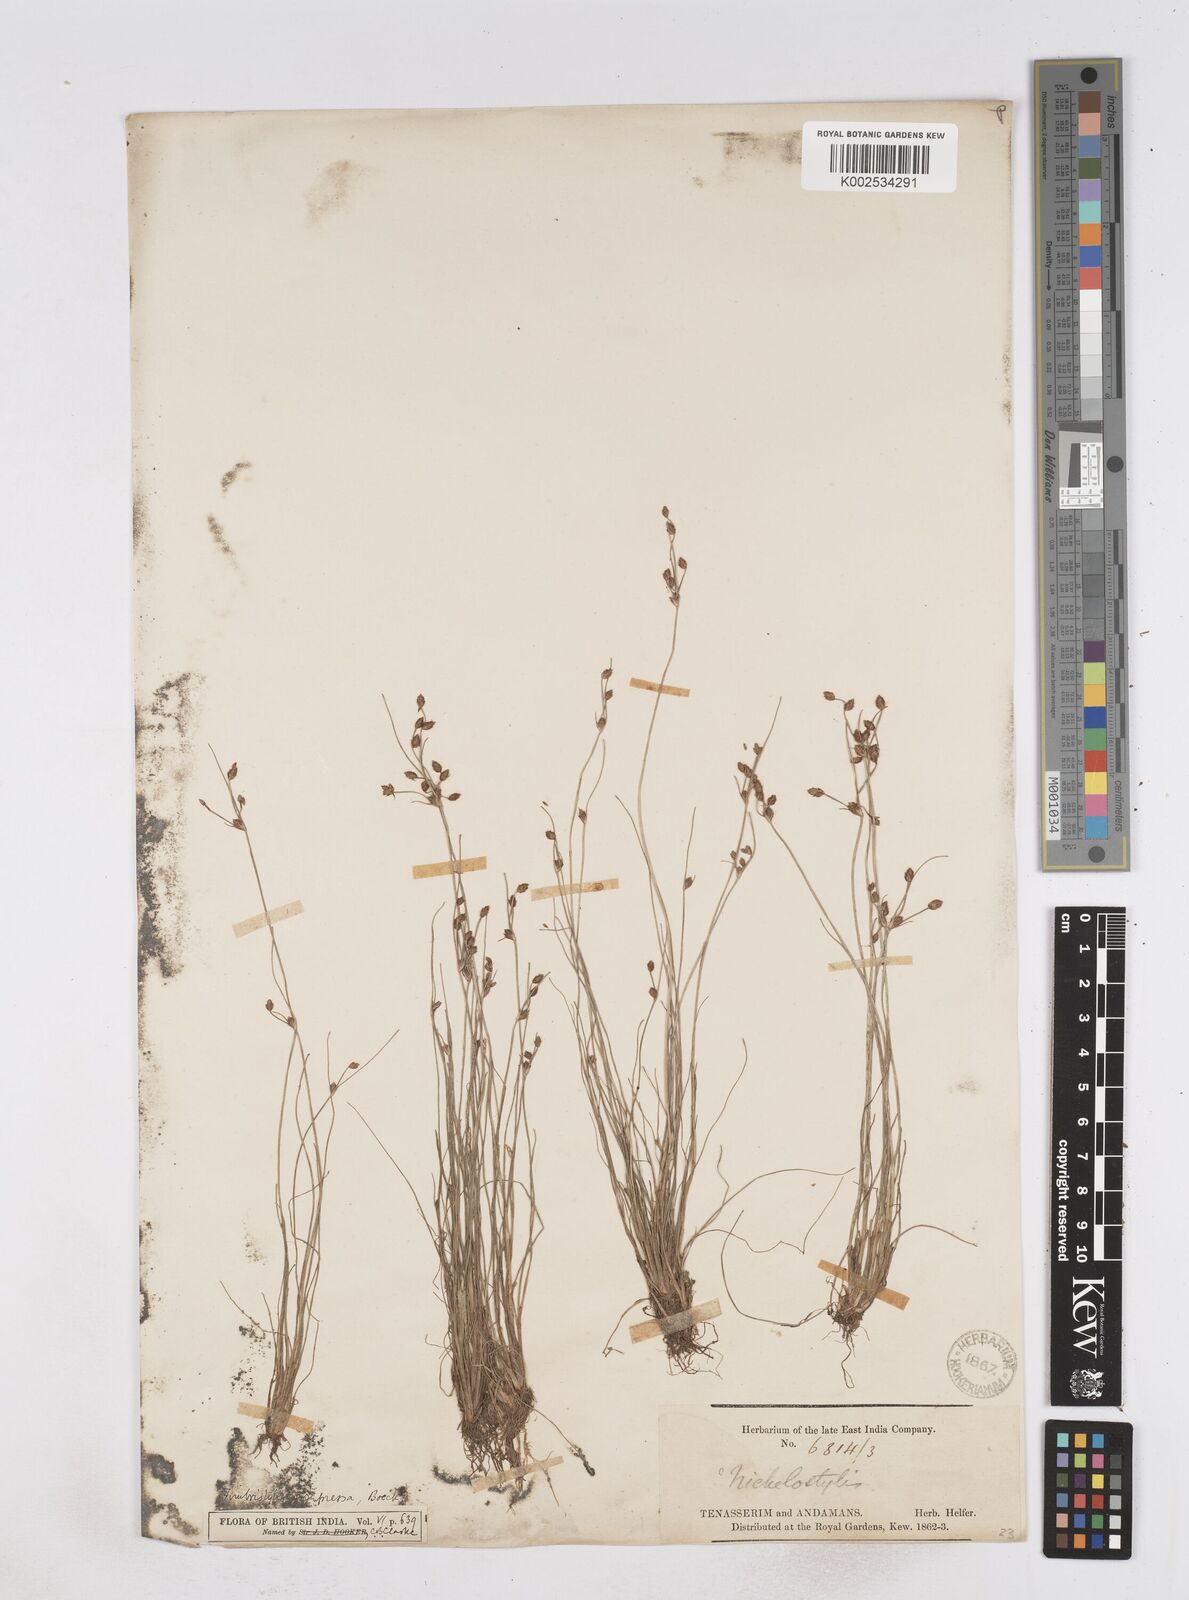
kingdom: Plantae
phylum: Tracheophyta
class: Liliopsida
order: Poales
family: Cyperaceae
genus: Fimbristylis
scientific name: Fimbristylis pubisquama
